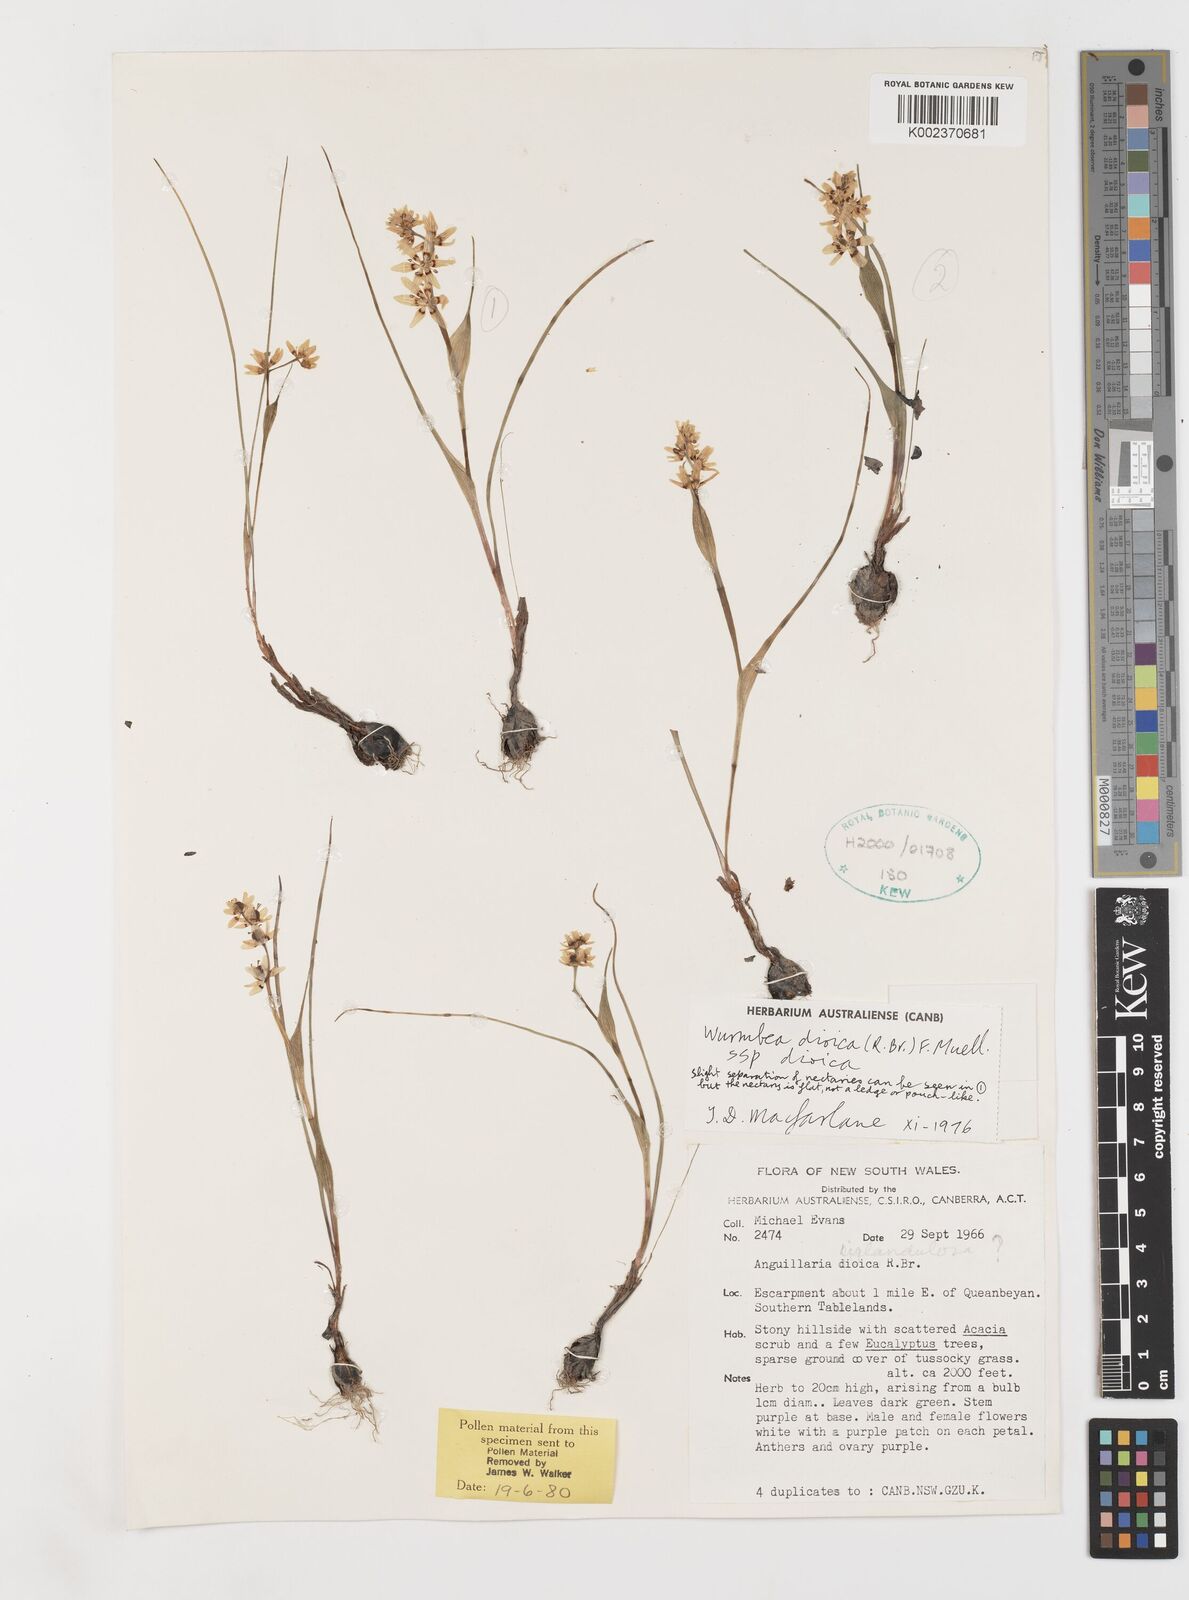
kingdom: Plantae
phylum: Tracheophyta
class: Liliopsida
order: Liliales
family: Colchicaceae
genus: Wurmbea
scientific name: Wurmbea dioica
